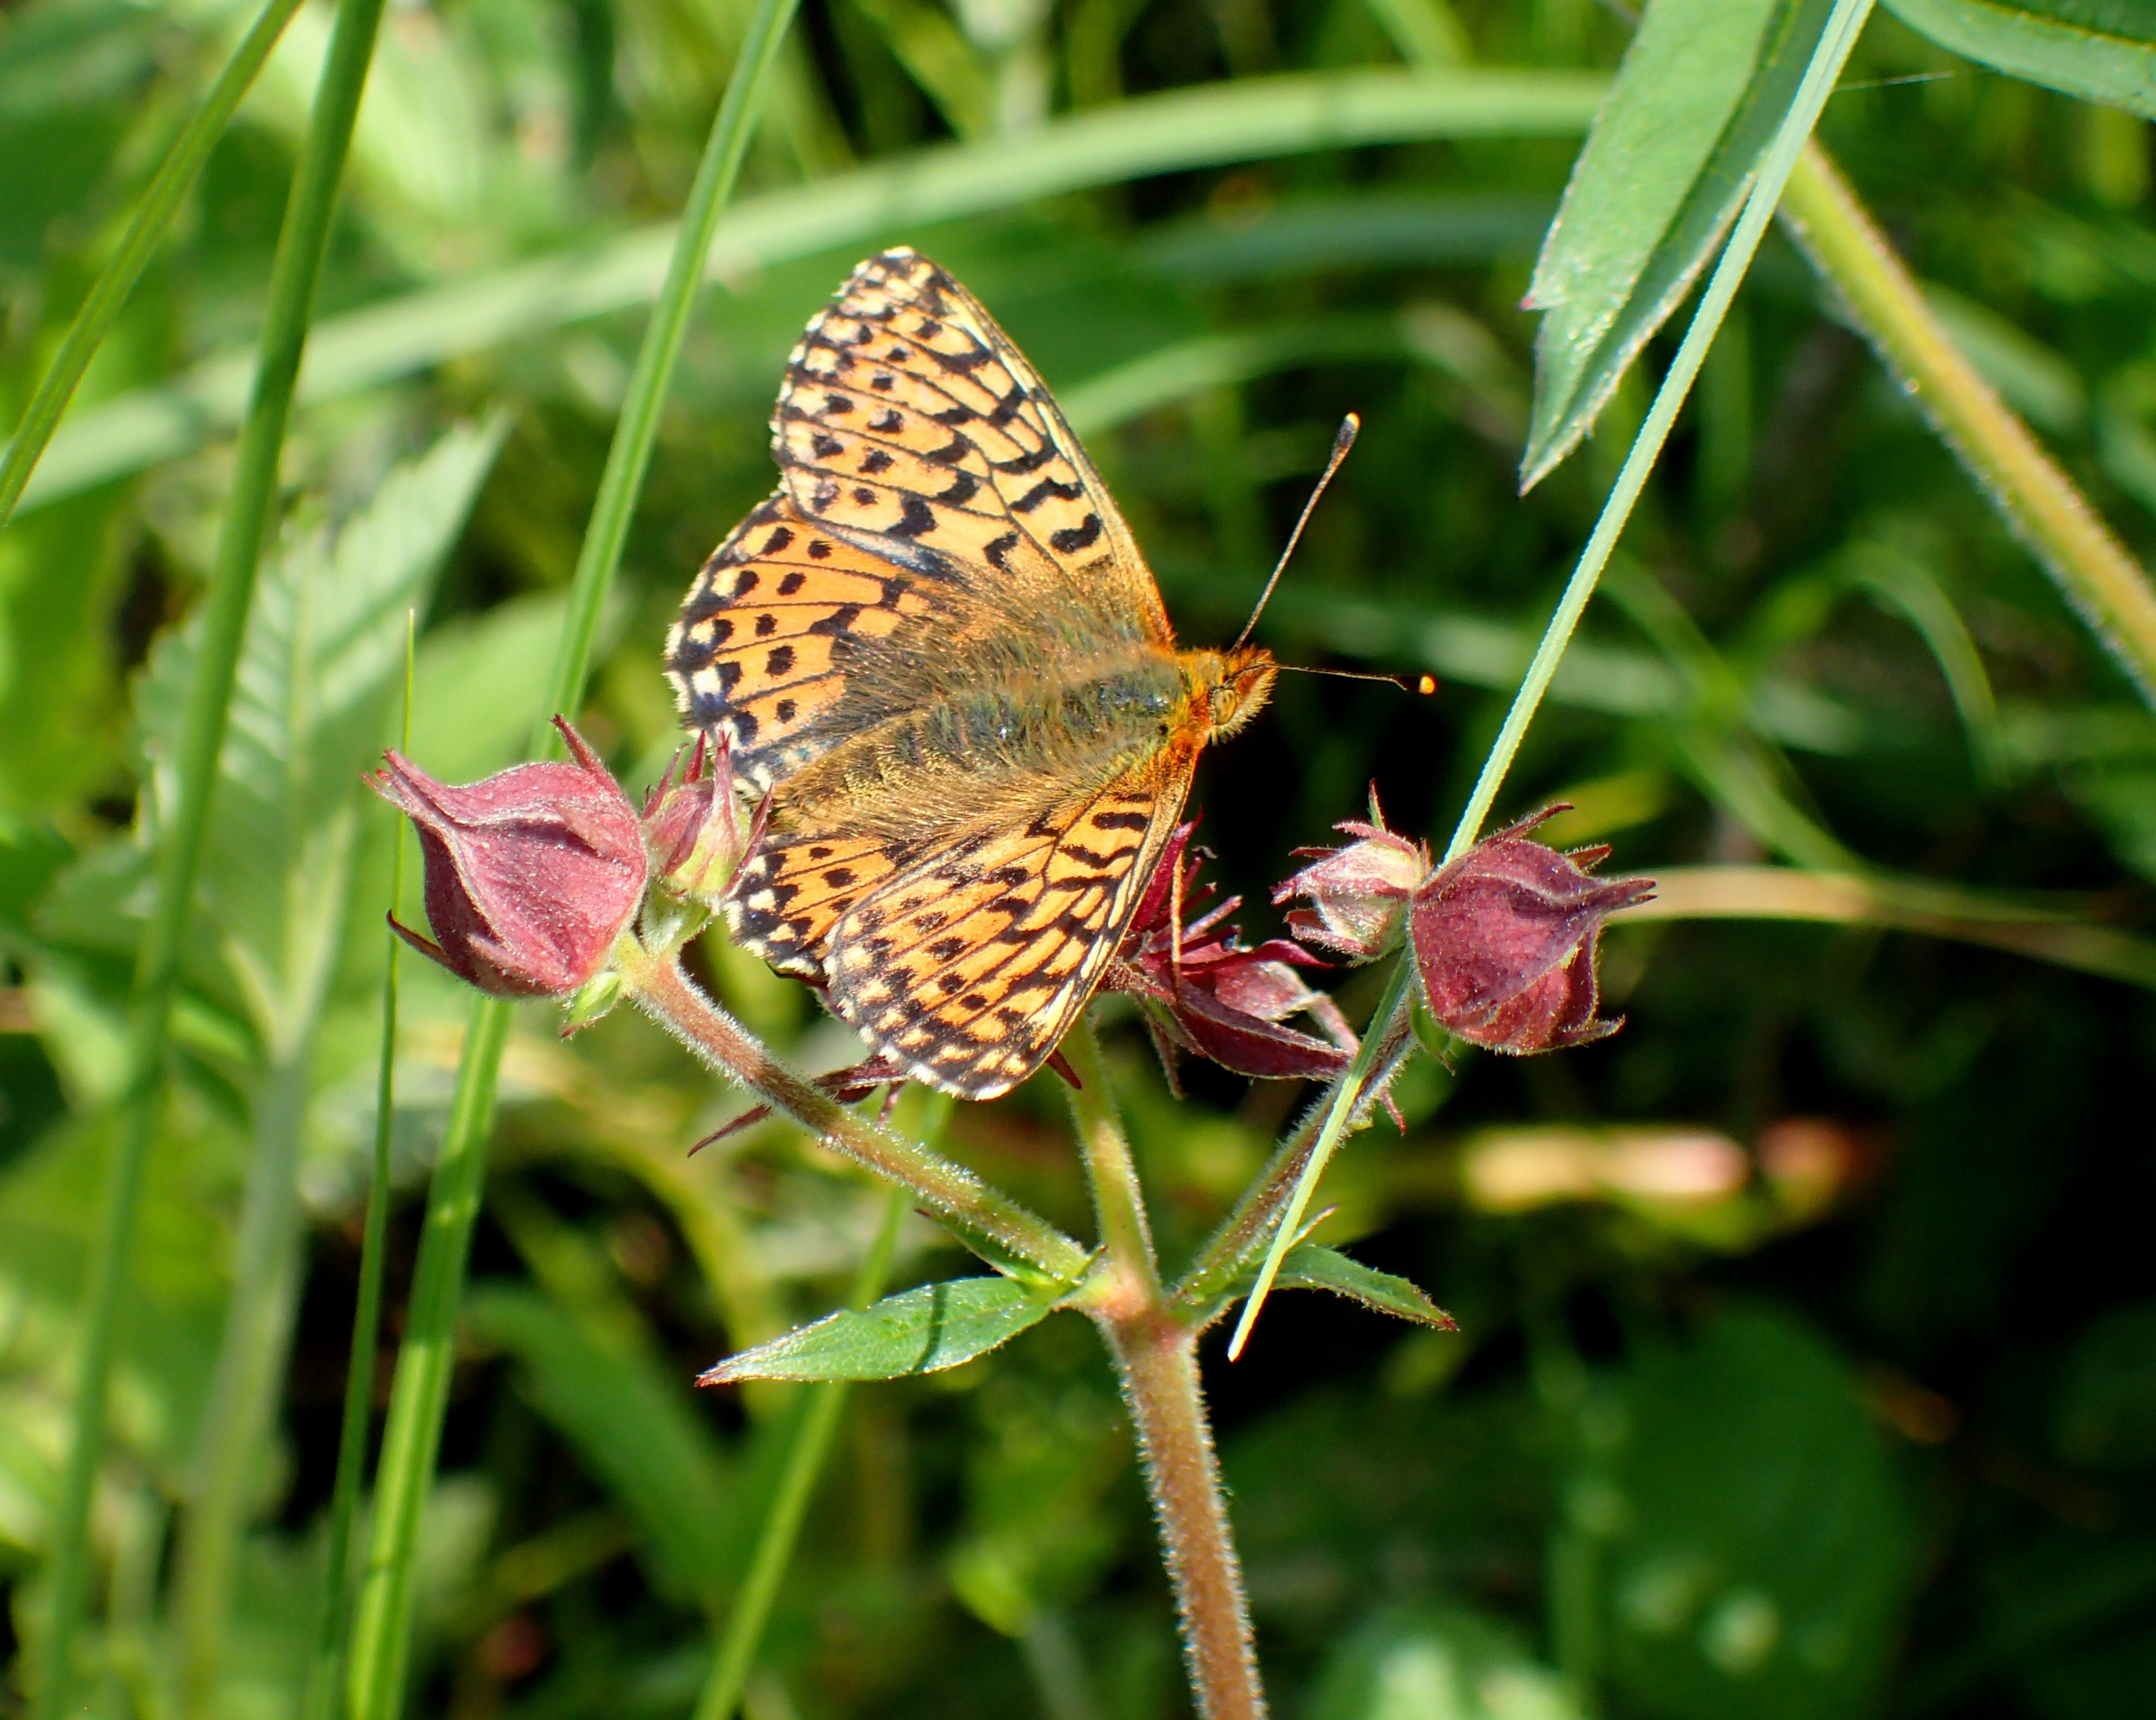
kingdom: Animalia
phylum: Arthropoda
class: Insecta
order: Lepidoptera
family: Nymphalidae
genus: Boloria
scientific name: Boloria aquilonaris
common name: Moseperlemorsommerfugl
